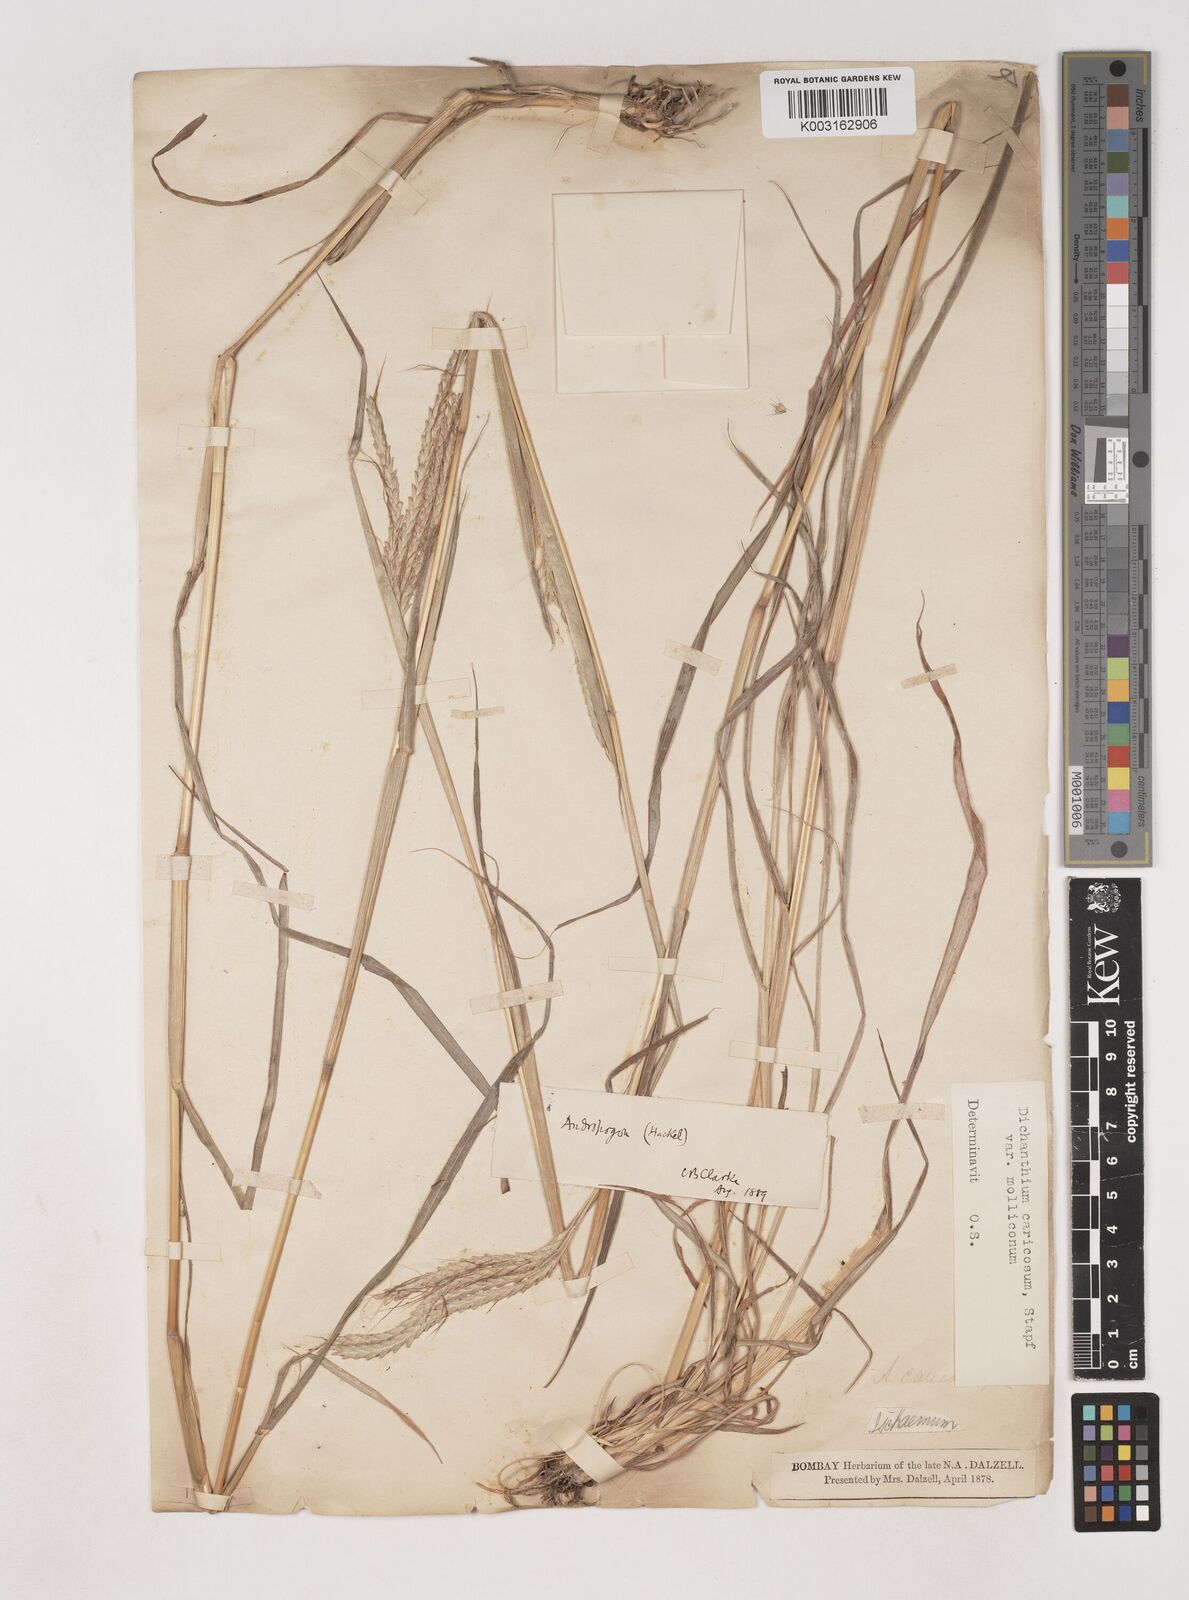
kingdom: Plantae
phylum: Tracheophyta
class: Liliopsida
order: Poales
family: Poaceae
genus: Dichanthium
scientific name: Dichanthium aristatum
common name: Angleton bluestem
